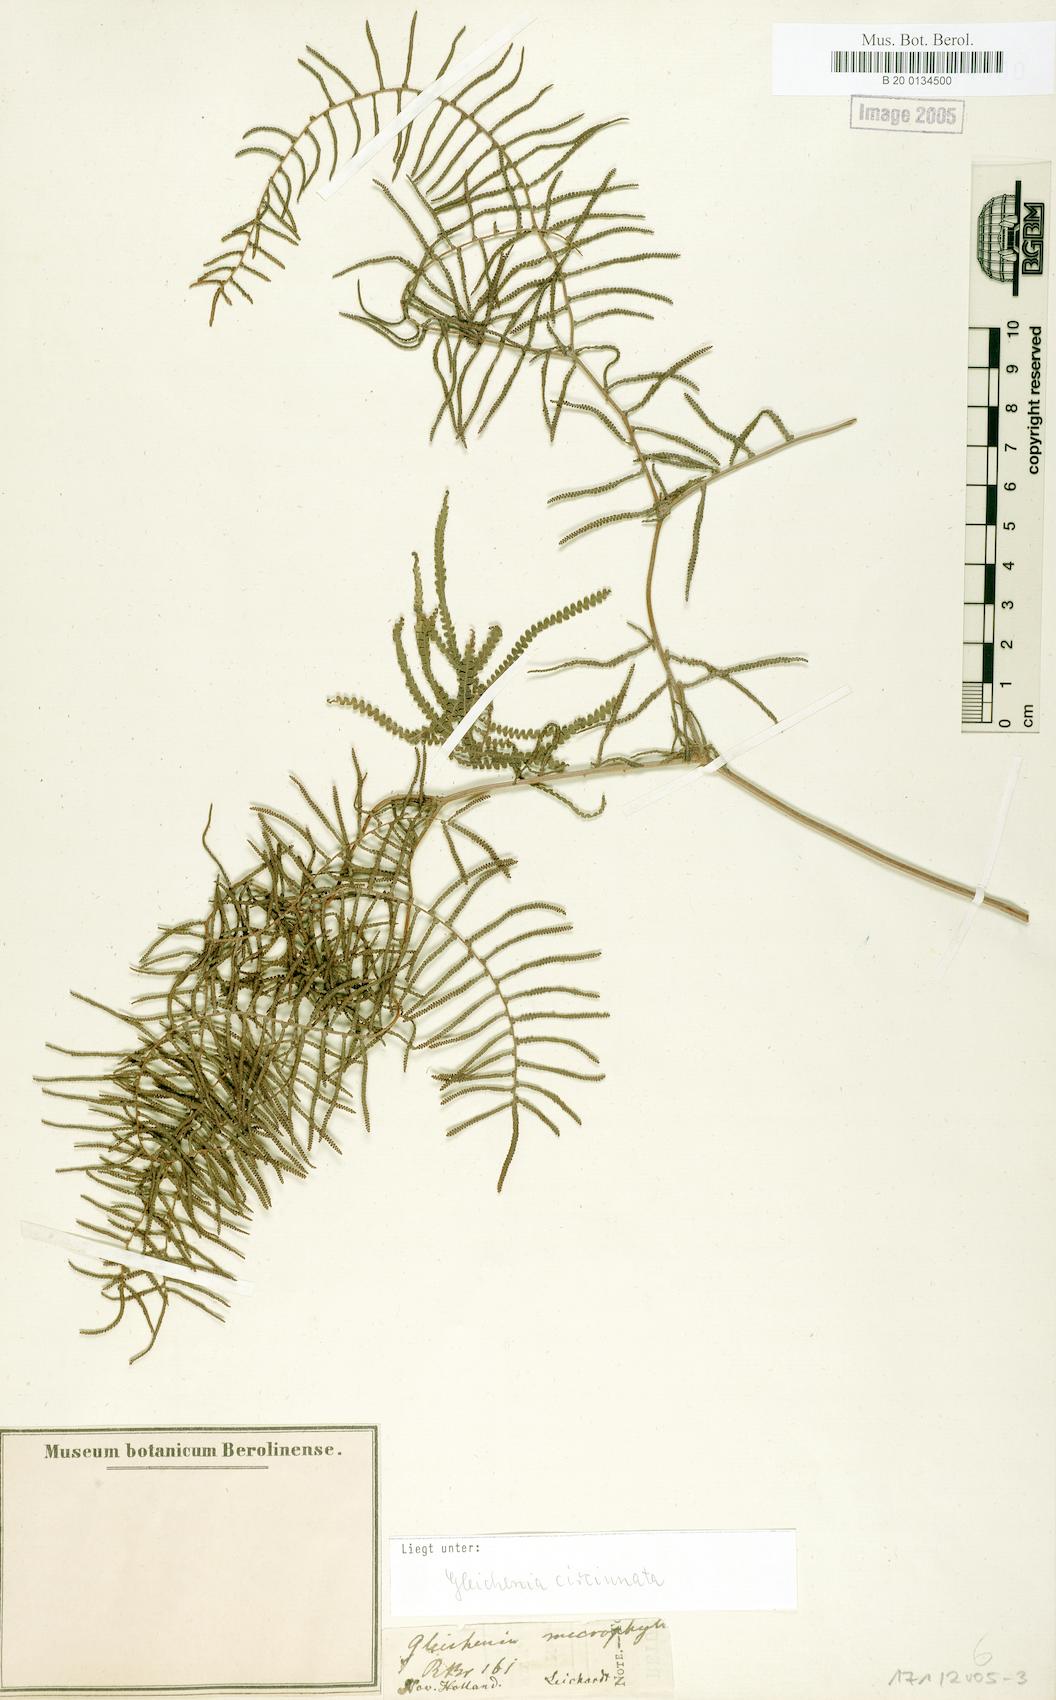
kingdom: Plantae
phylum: Tracheophyta
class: Polypodiopsida
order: Gleicheniales
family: Gleicheniaceae
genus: Gleichenia
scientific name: Gleichenia microphylla
